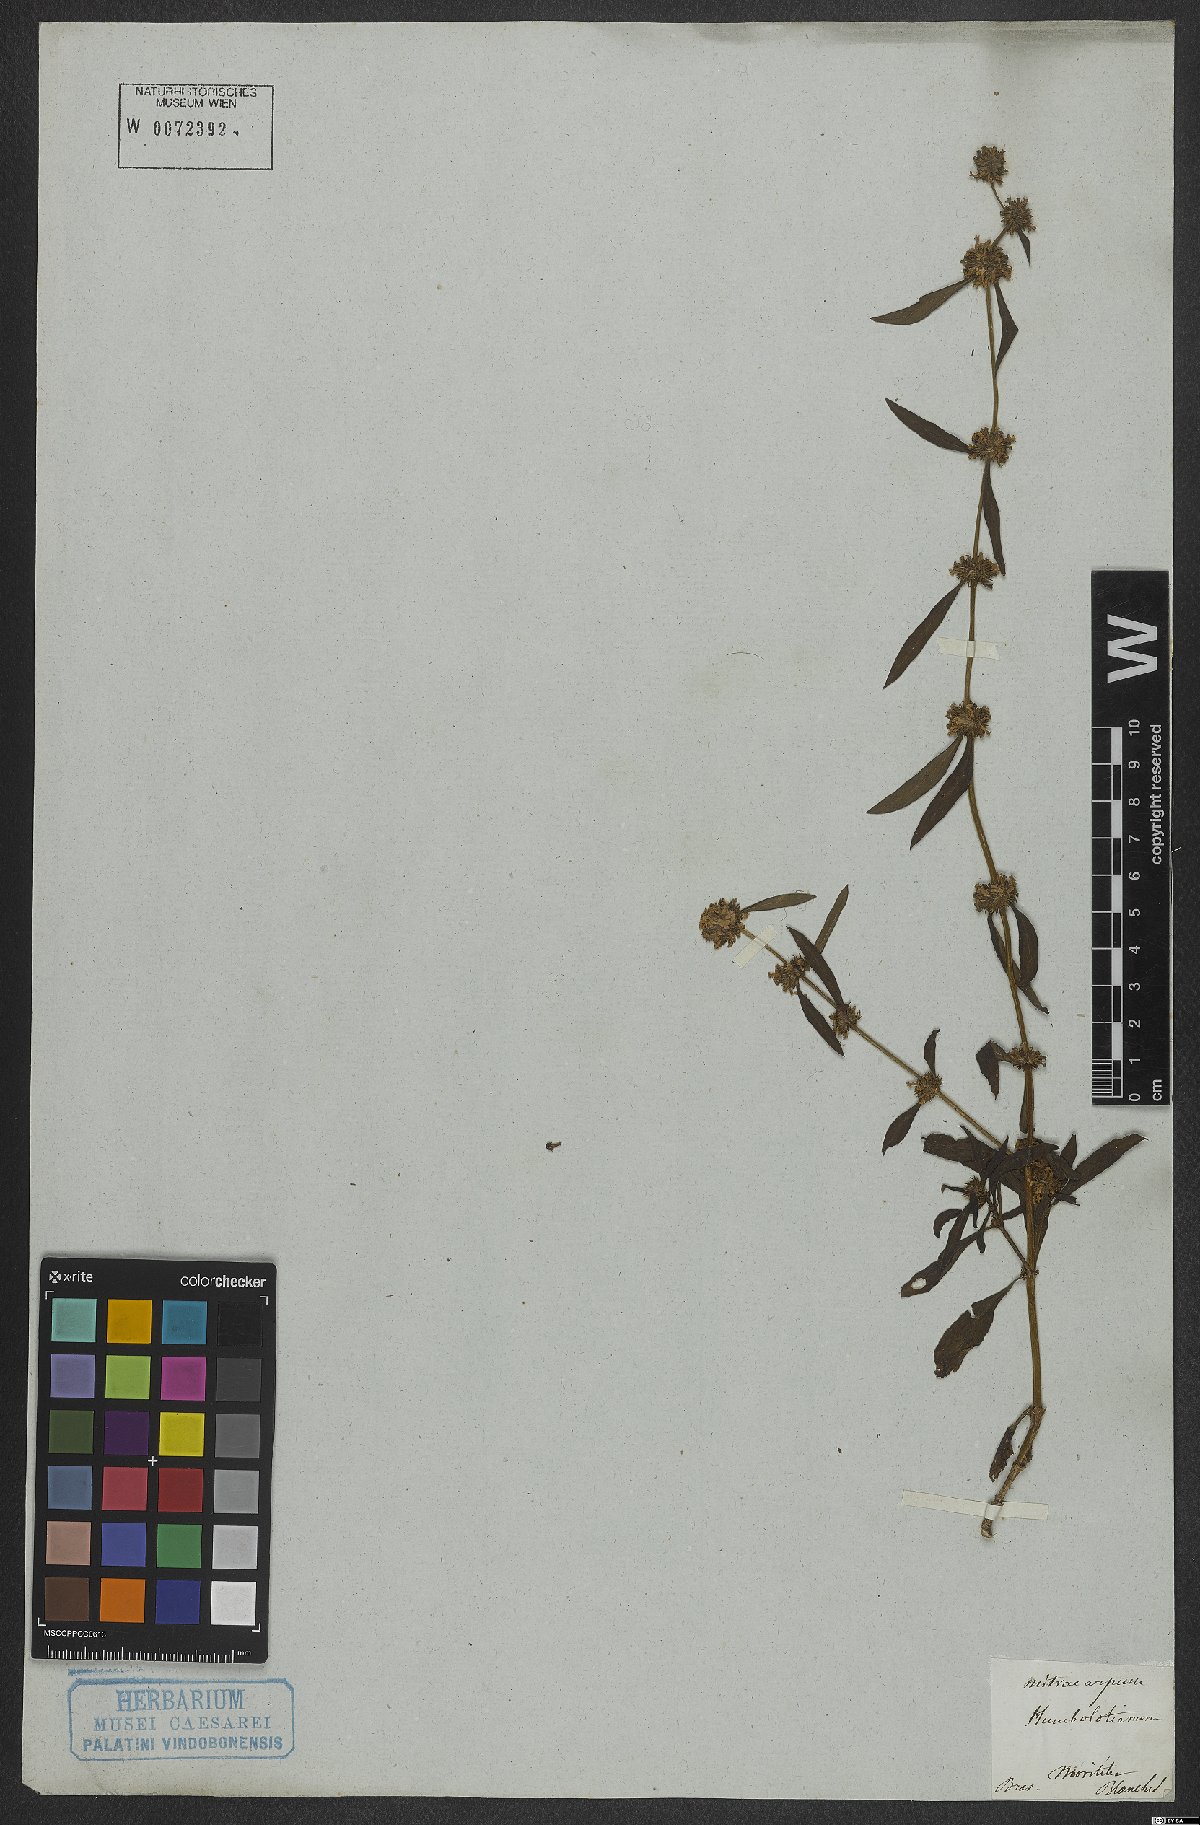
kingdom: Plantae
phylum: Tracheophyta
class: Magnoliopsida
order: Gentianales
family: Rubiaceae
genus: Mitracarpus
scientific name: Mitracarpus frigidus
